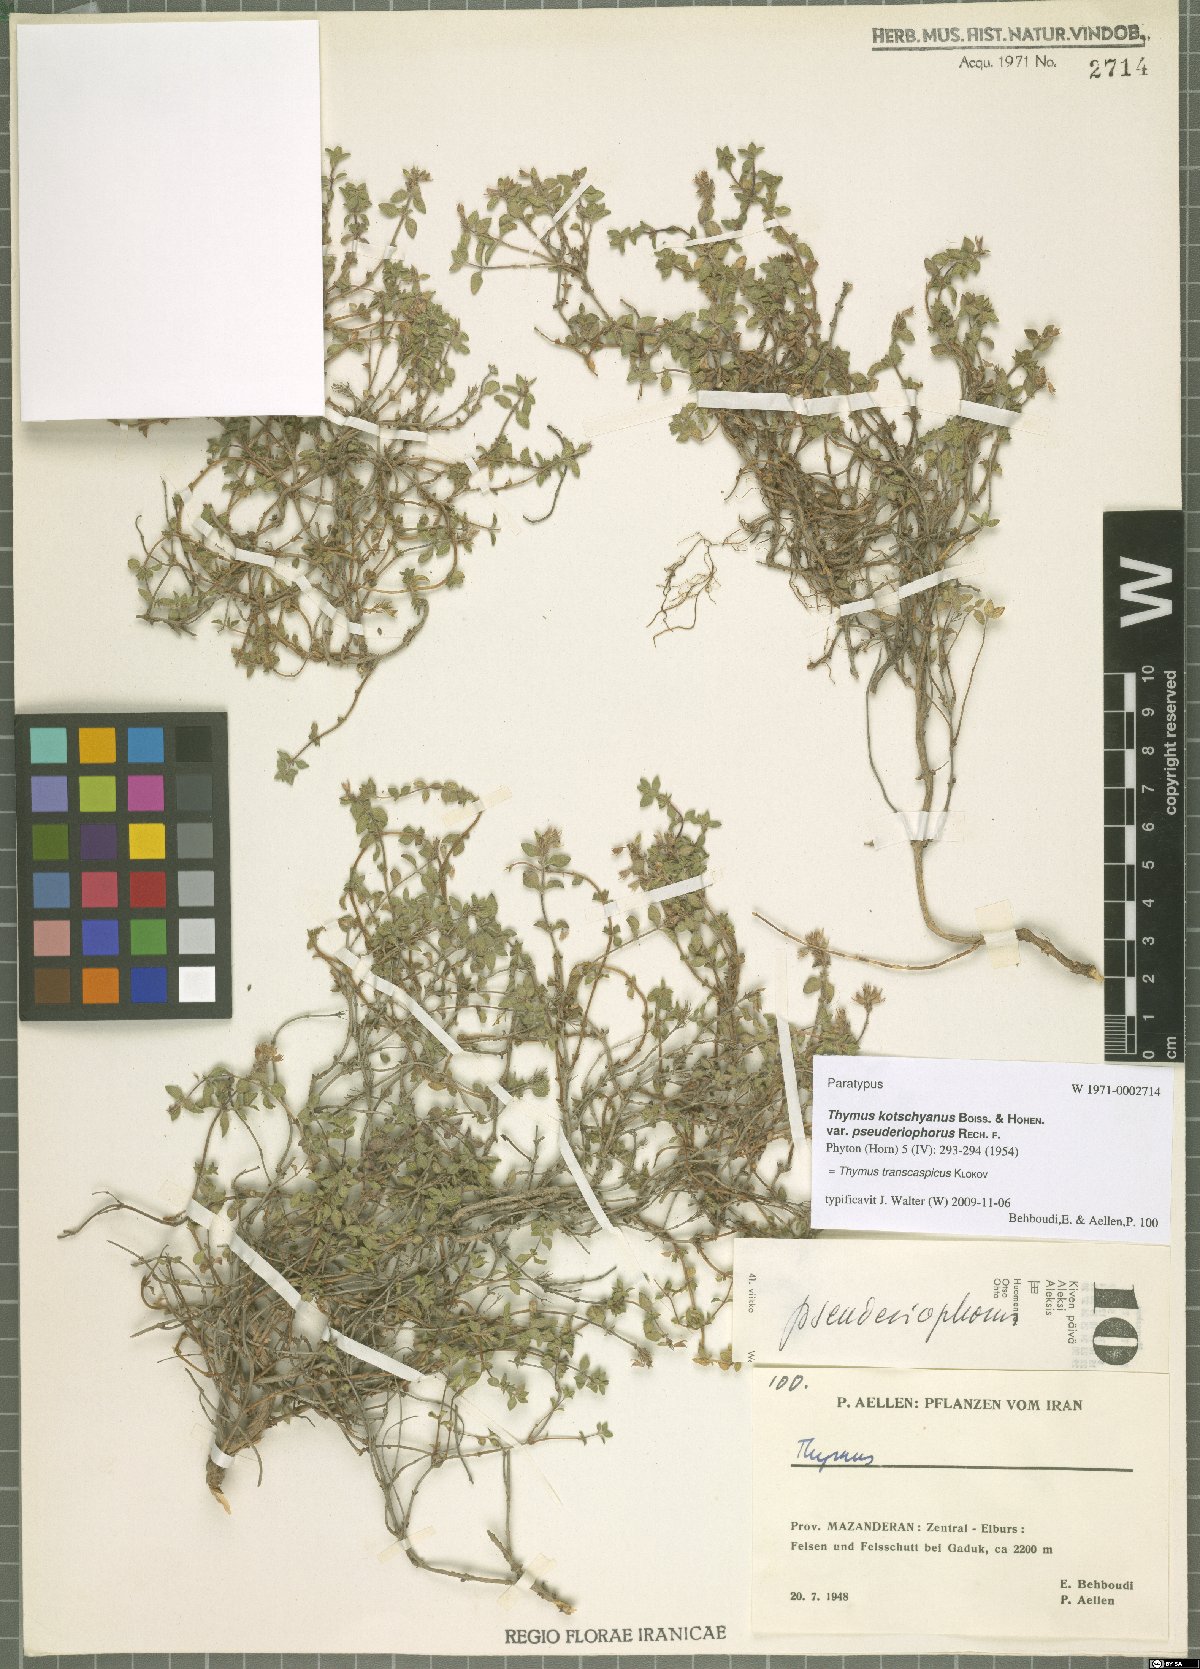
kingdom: Plantae
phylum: Tracheophyta
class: Magnoliopsida
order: Lamiales
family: Lamiaceae
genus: Thymus
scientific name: Thymus transcaspicus
